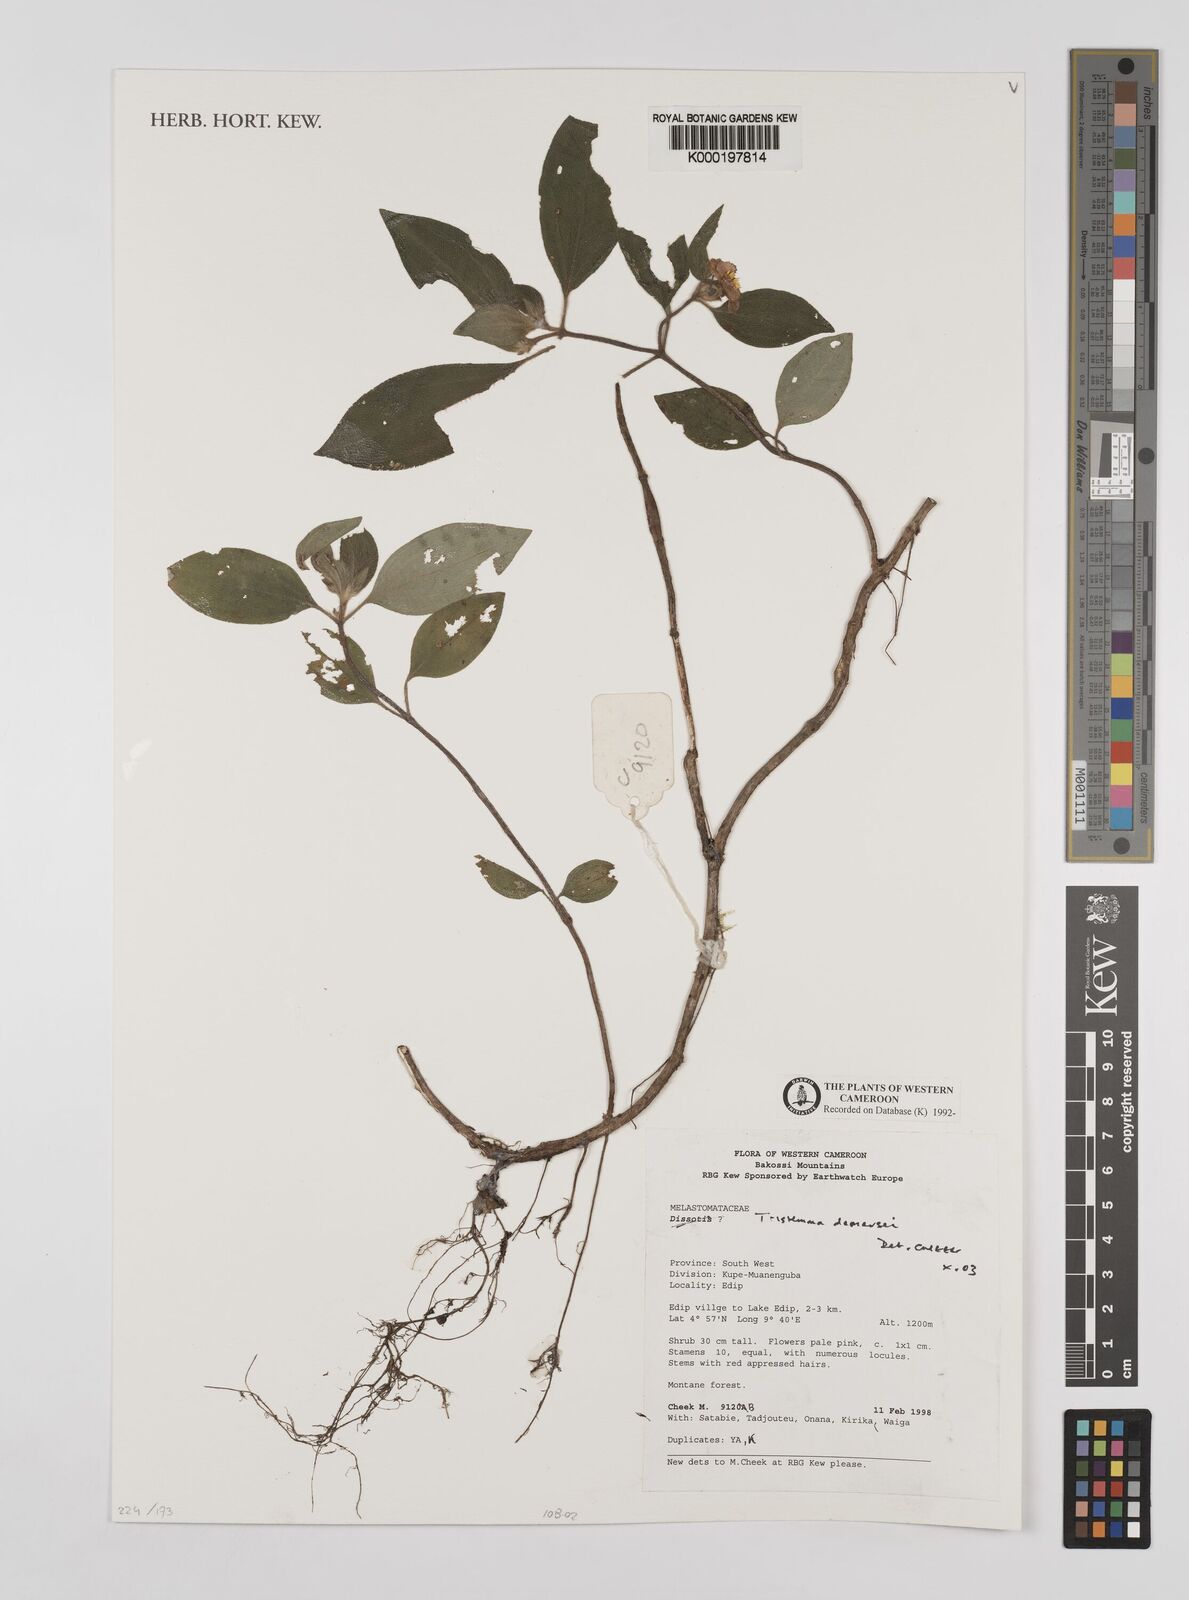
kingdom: Plantae
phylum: Tracheophyta
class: Magnoliopsida
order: Myrtales
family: Melastomataceae
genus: Tristemma
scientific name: Tristemma demeusei
